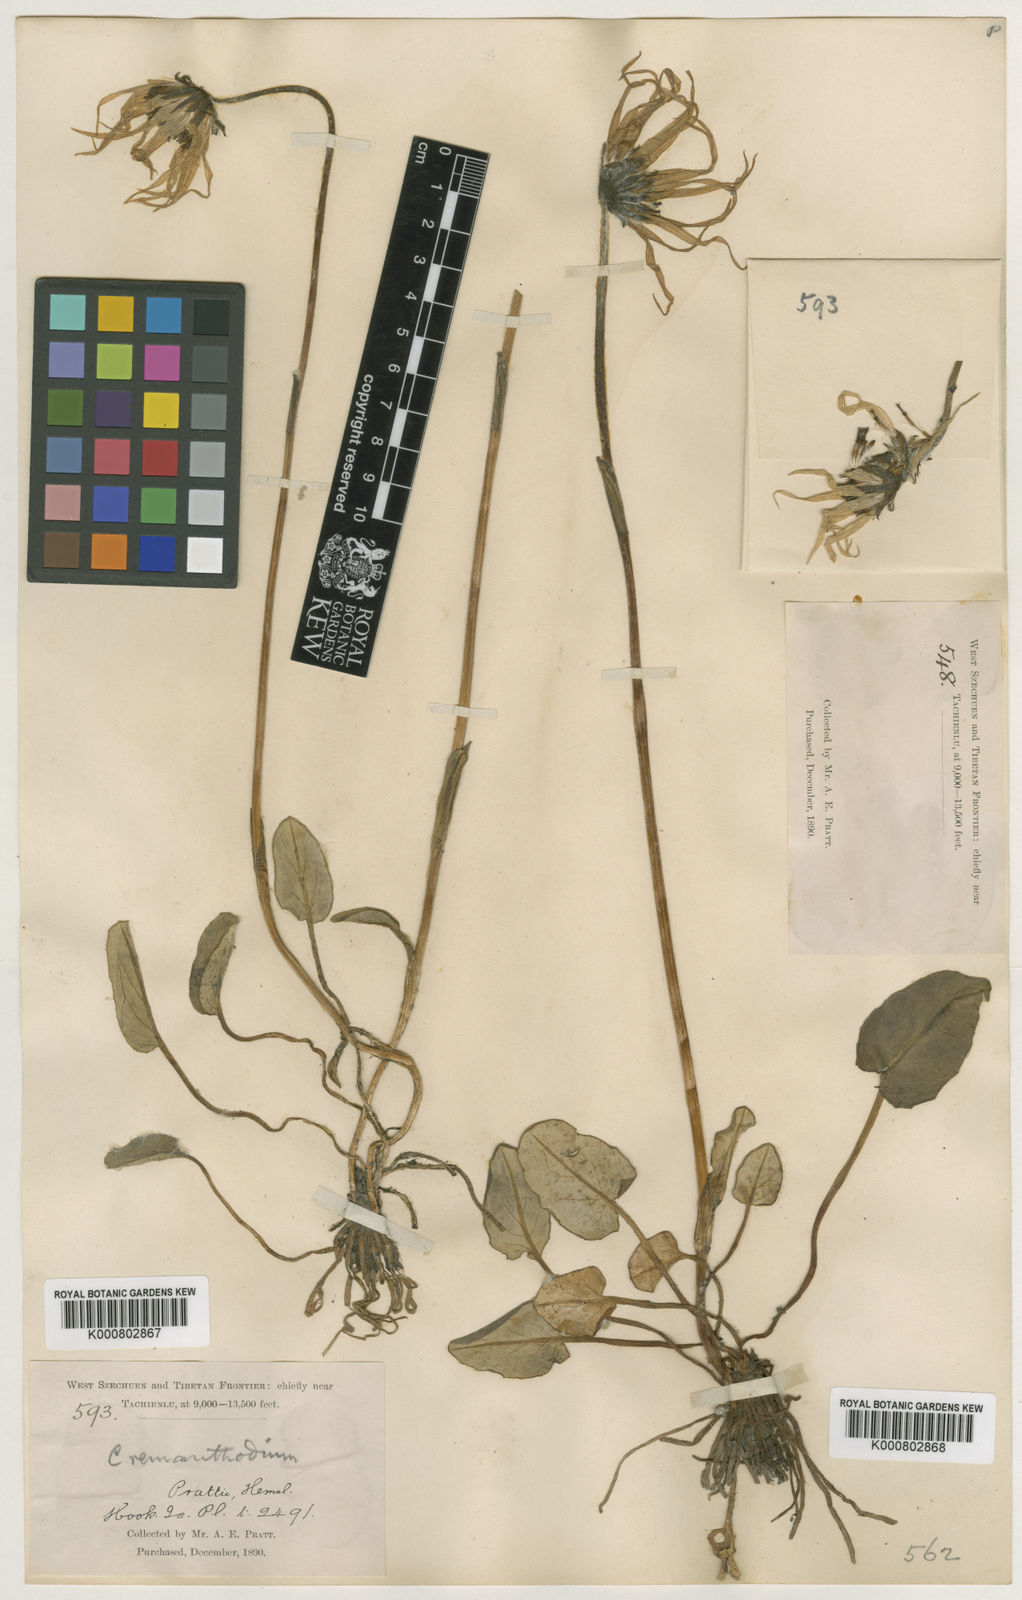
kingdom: Plantae
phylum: Tracheophyta
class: Magnoliopsida
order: Asterales
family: Asteraceae
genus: Cremanthodium
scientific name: Cremanthodium prattii
